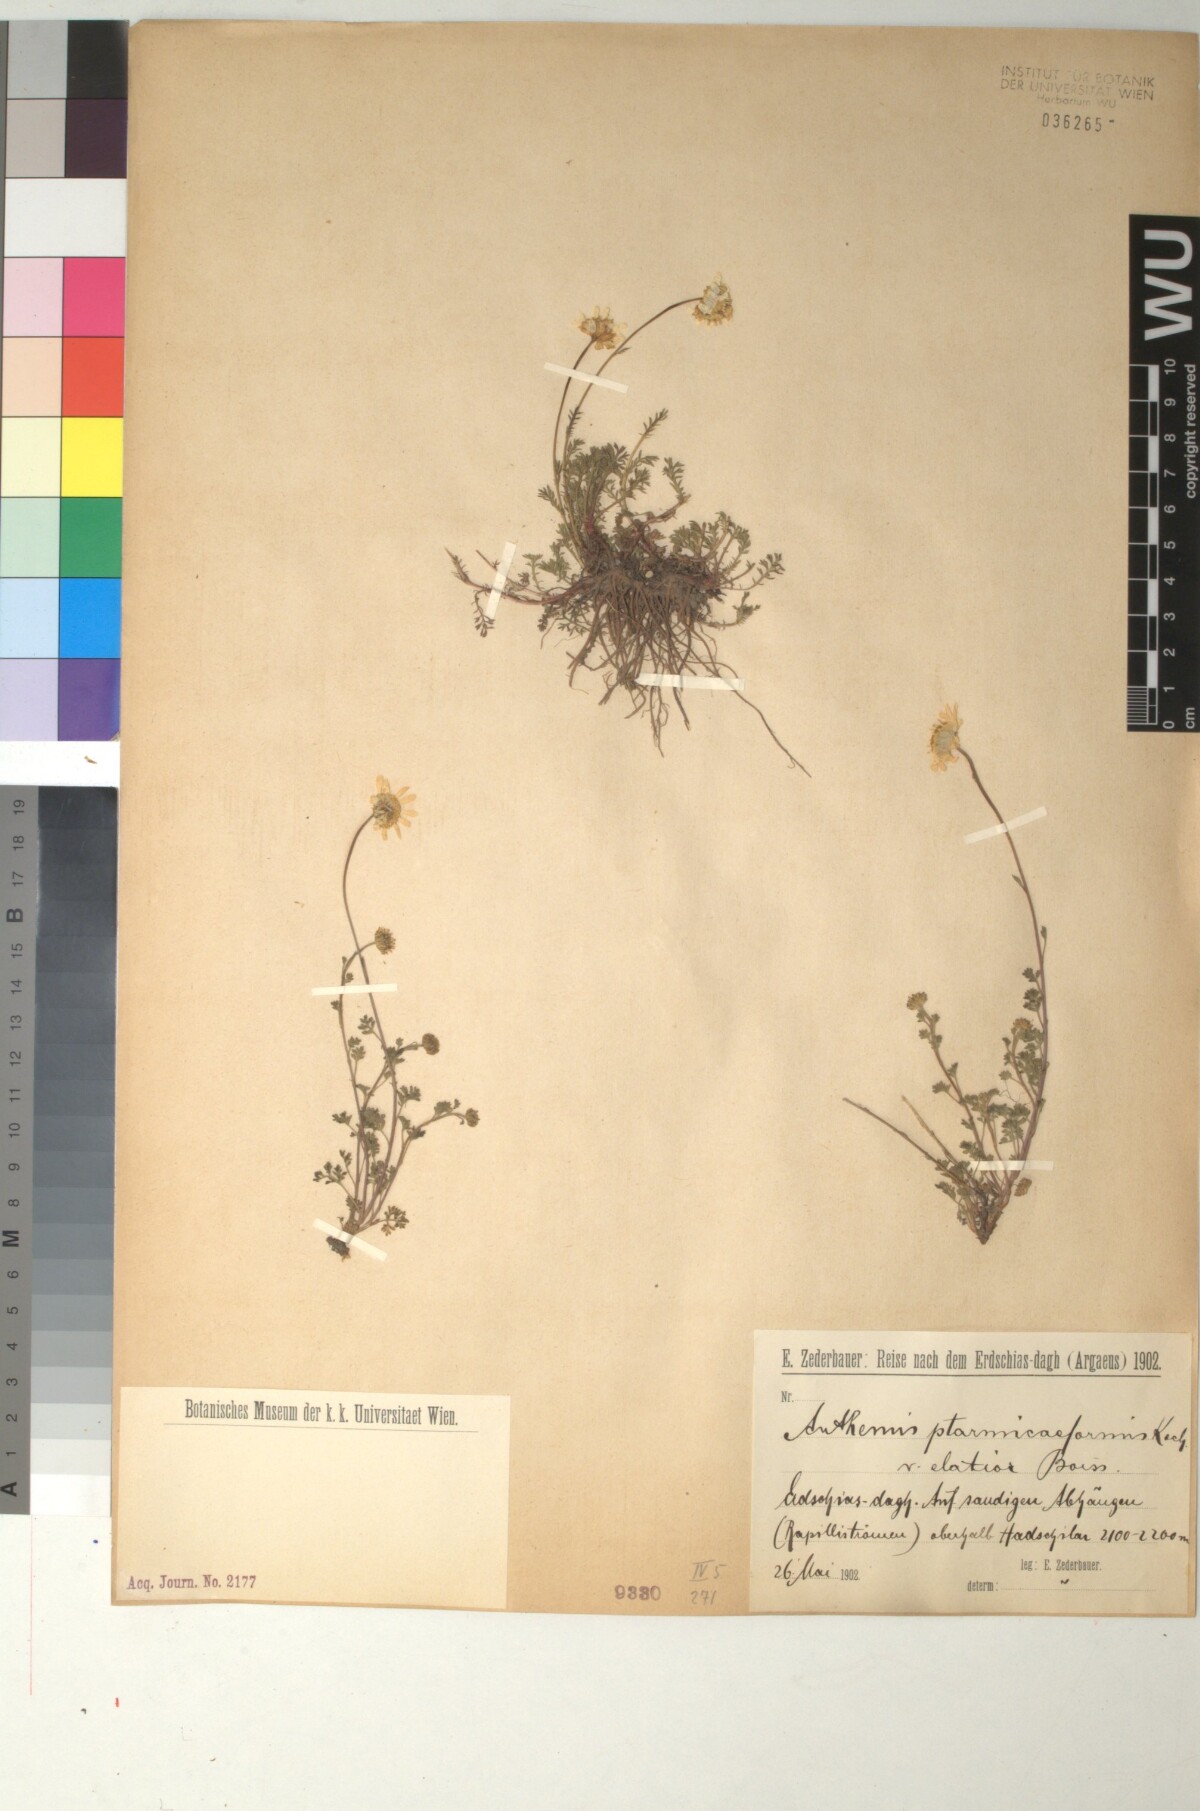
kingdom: Plantae
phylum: Tracheophyta
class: Magnoliopsida
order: Asterales
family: Asteraceae
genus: Anthemis
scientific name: Anthemis cretica
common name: Mountain dog-daisy
